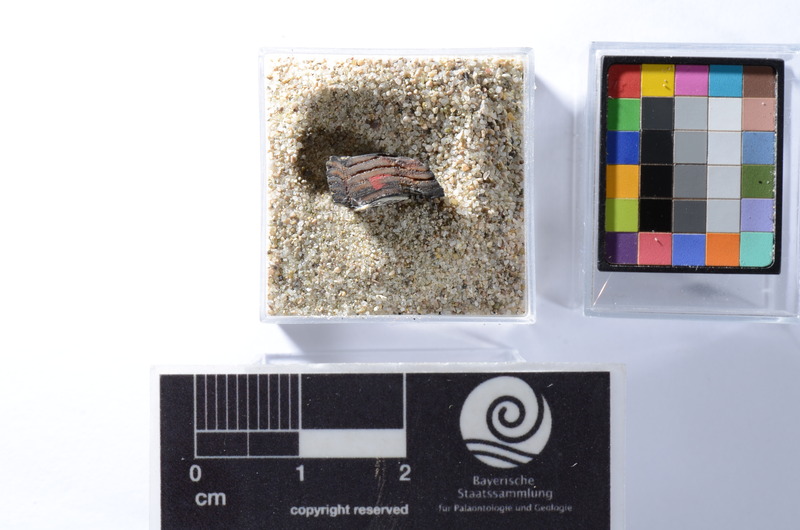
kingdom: Animalia
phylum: Chordata
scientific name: Chordata
